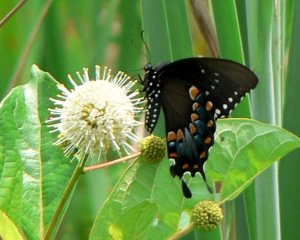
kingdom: Animalia
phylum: Arthropoda
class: Insecta
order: Lepidoptera
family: Papilionidae
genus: Pterourus
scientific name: Pterourus troilus
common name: Spicebush Swallowtail
